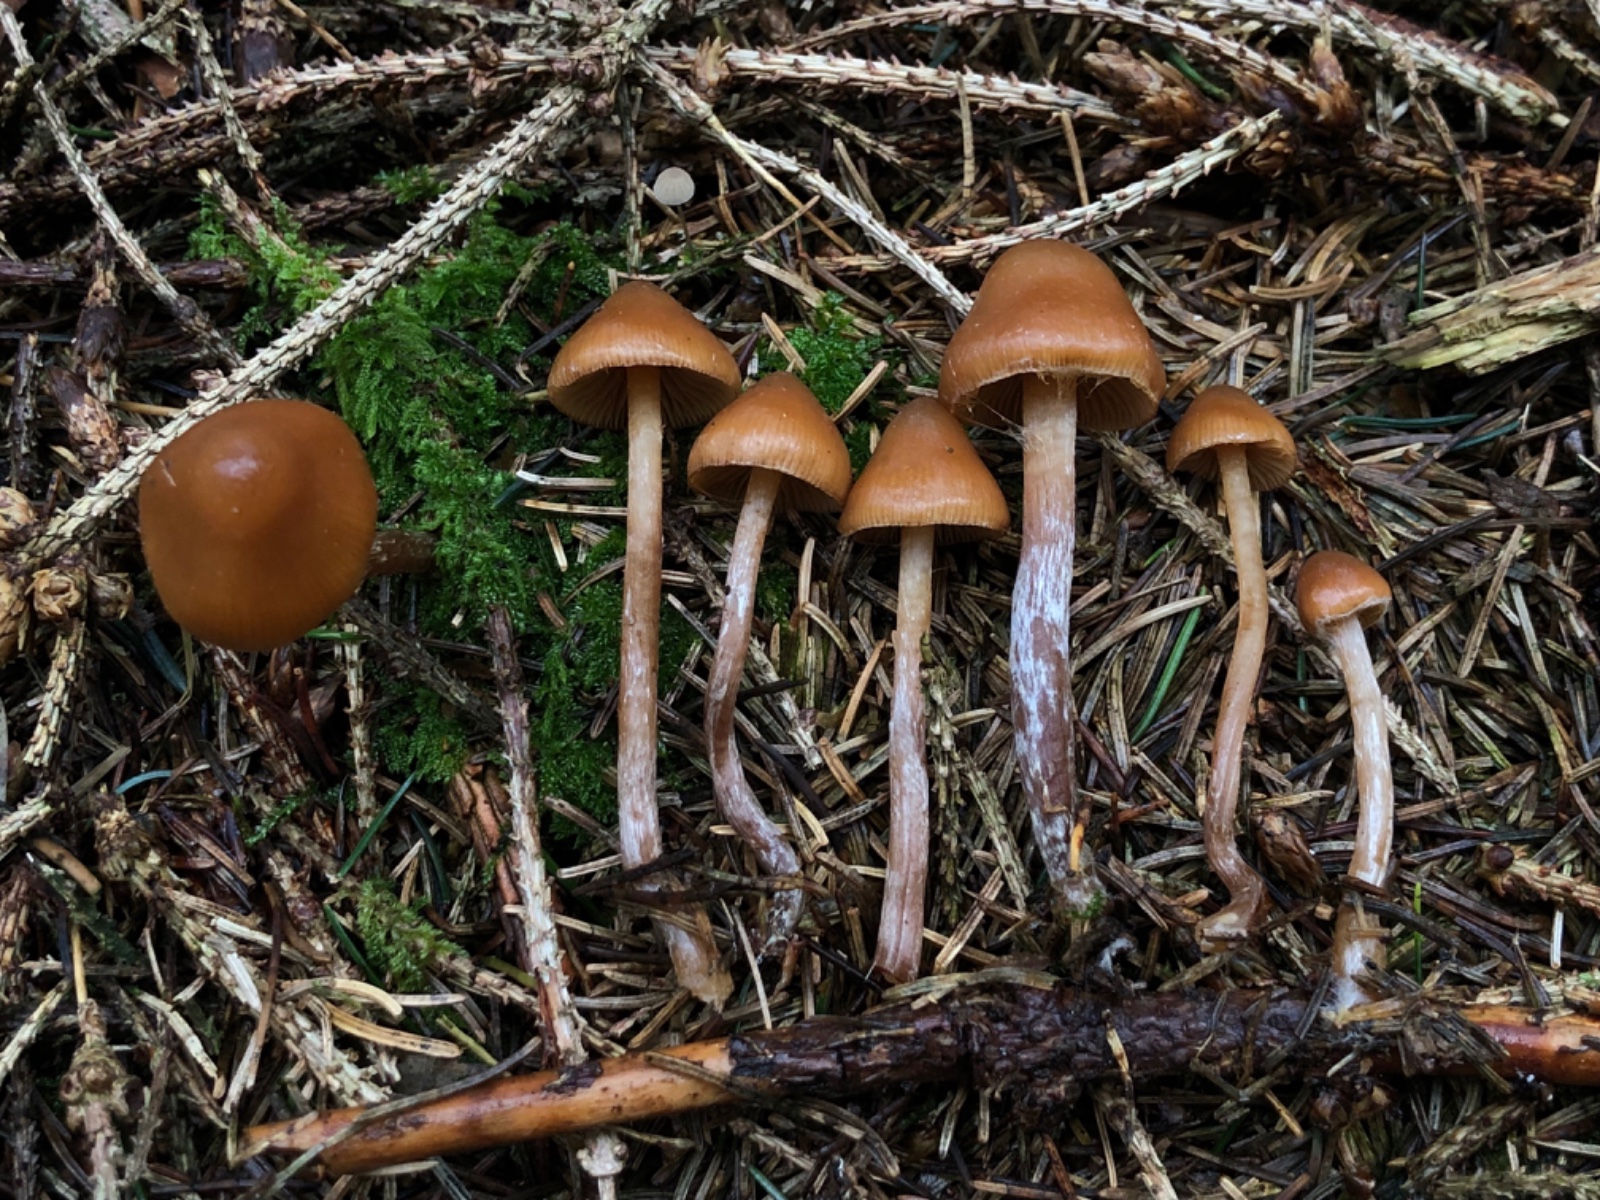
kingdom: Fungi
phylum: Basidiomycota
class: Agaricomycetes
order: Agaricales
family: Hymenogastraceae
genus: Galerina
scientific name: Galerina sideroides
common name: træflis-hjelmhat
